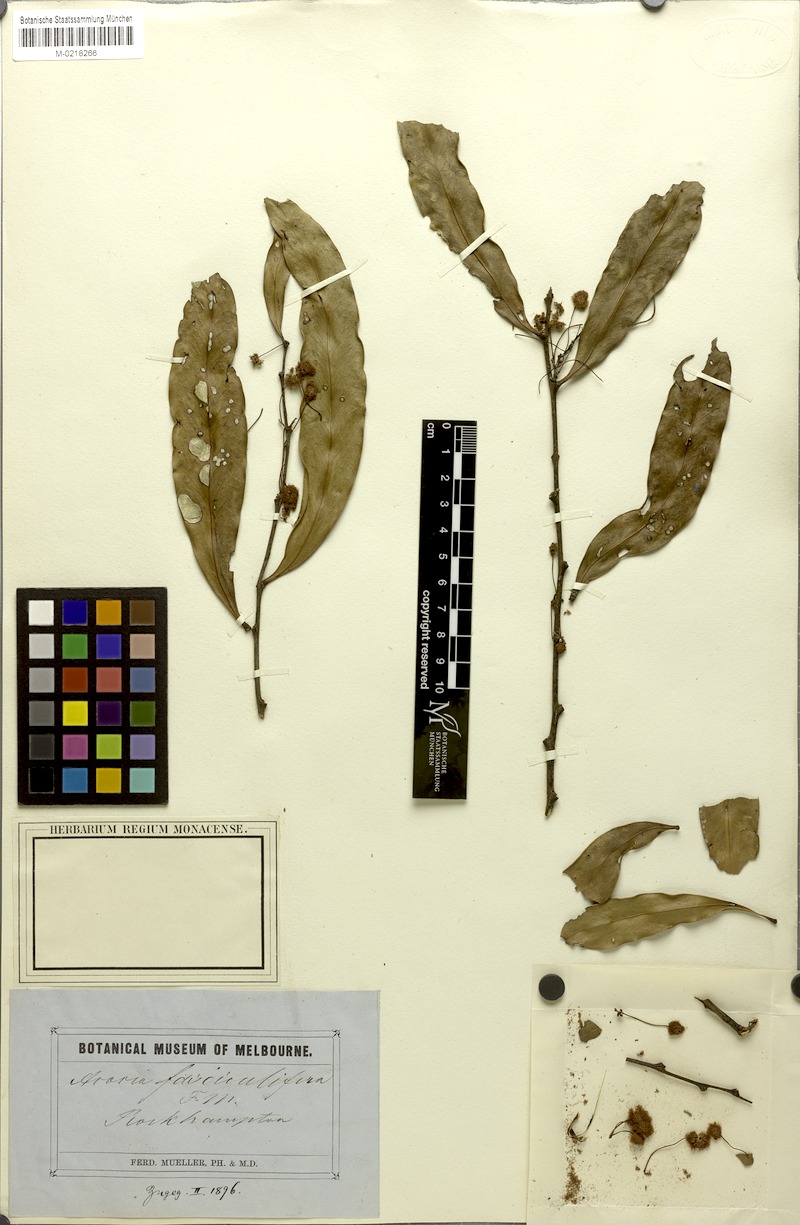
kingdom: Plantae
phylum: Tracheophyta
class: Magnoliopsida
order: Fabales
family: Fabaceae
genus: Acacia
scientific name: Acacia fasciculifera
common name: Scalybark
